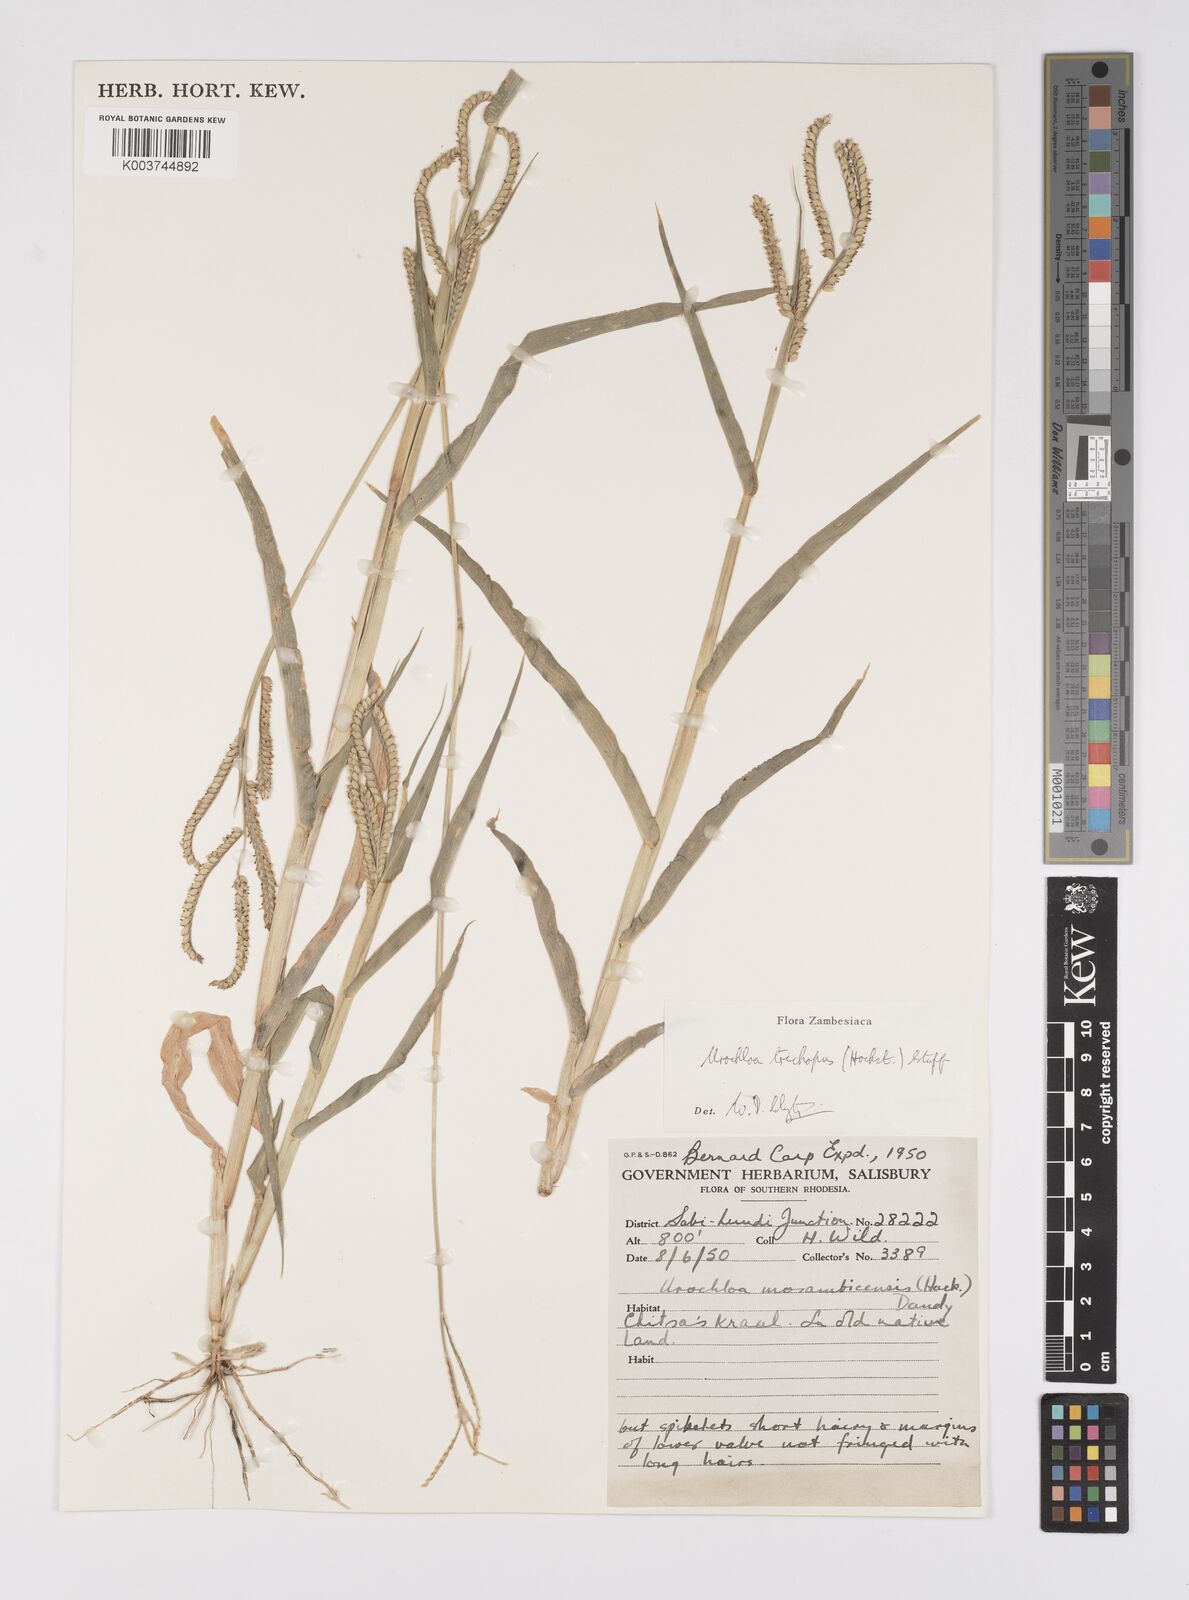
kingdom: Plantae
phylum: Tracheophyta
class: Liliopsida
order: Poales
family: Poaceae
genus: Urochloa
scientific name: Urochloa trichopus
